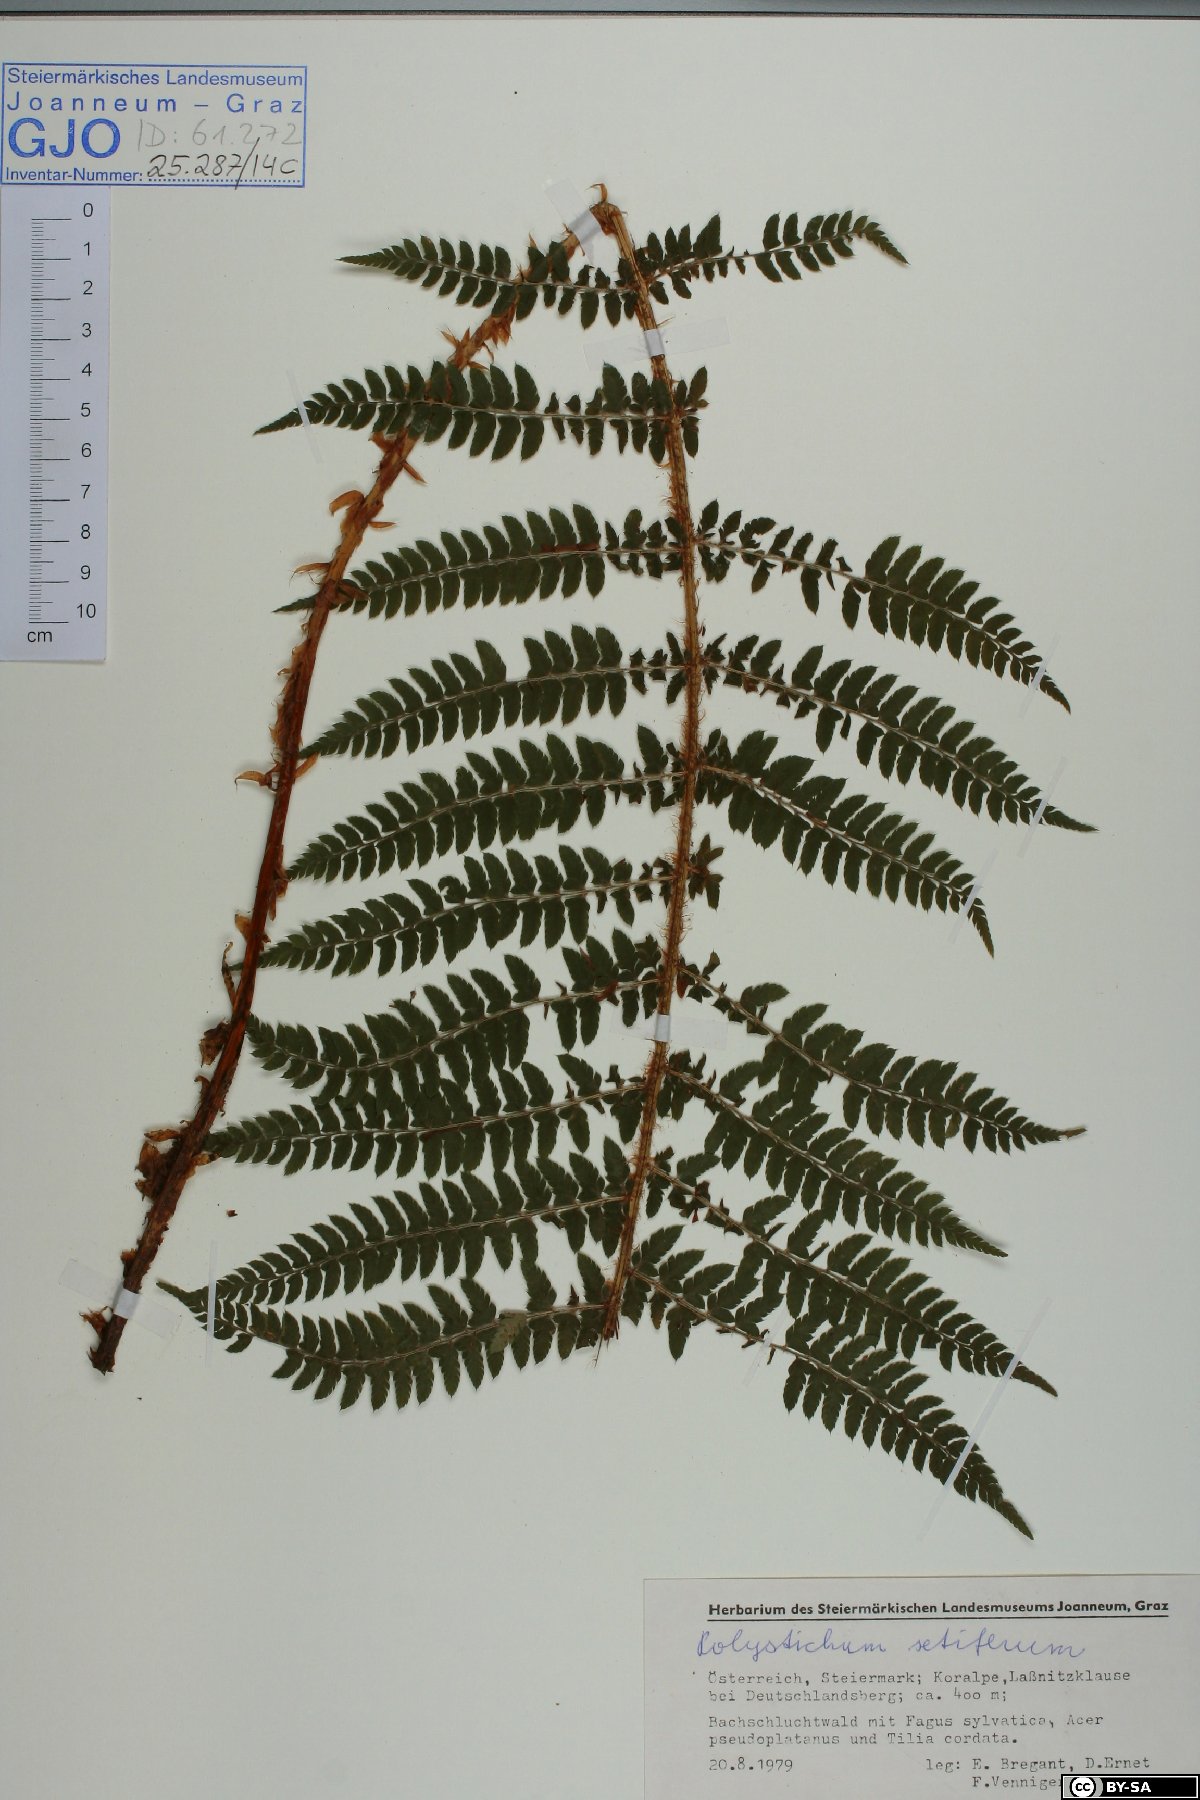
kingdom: Plantae
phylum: Tracheophyta
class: Polypodiopsida
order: Polypodiales
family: Dryopteridaceae
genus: Polystichum
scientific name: Polystichum setiferum
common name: Soft shield-fern
